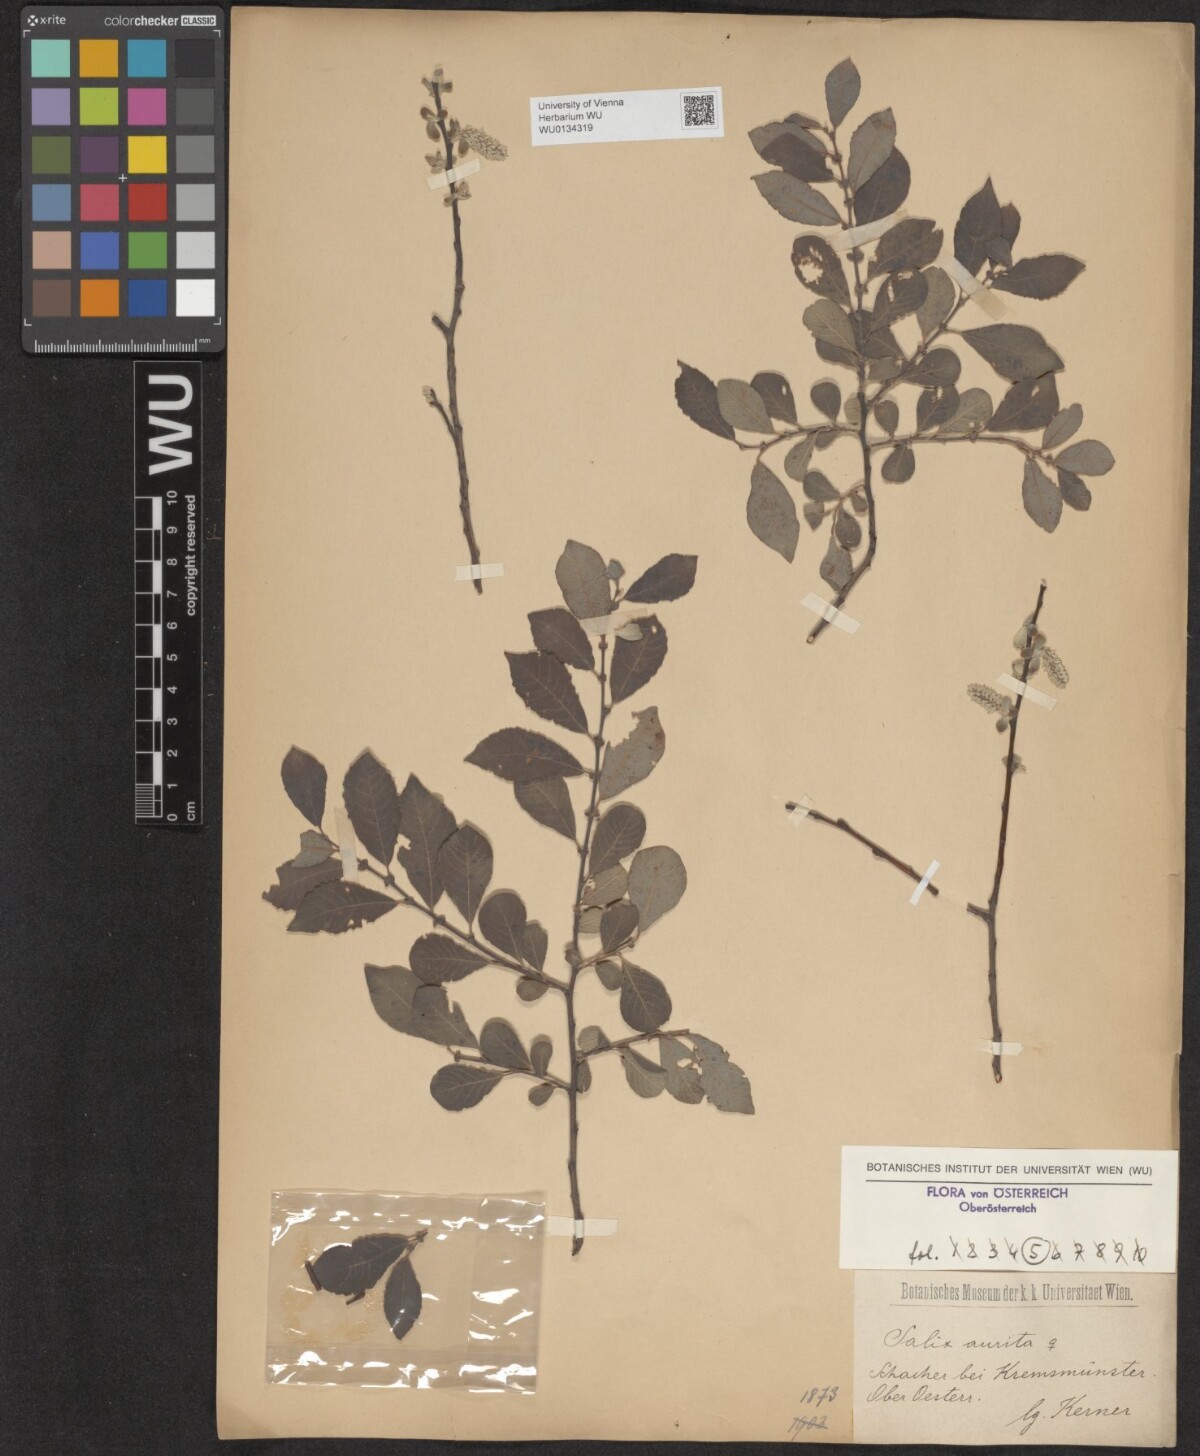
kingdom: Plantae
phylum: Tracheophyta
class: Magnoliopsida
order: Malpighiales
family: Salicaceae
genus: Salix
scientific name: Salix aurita
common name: Eared willow
